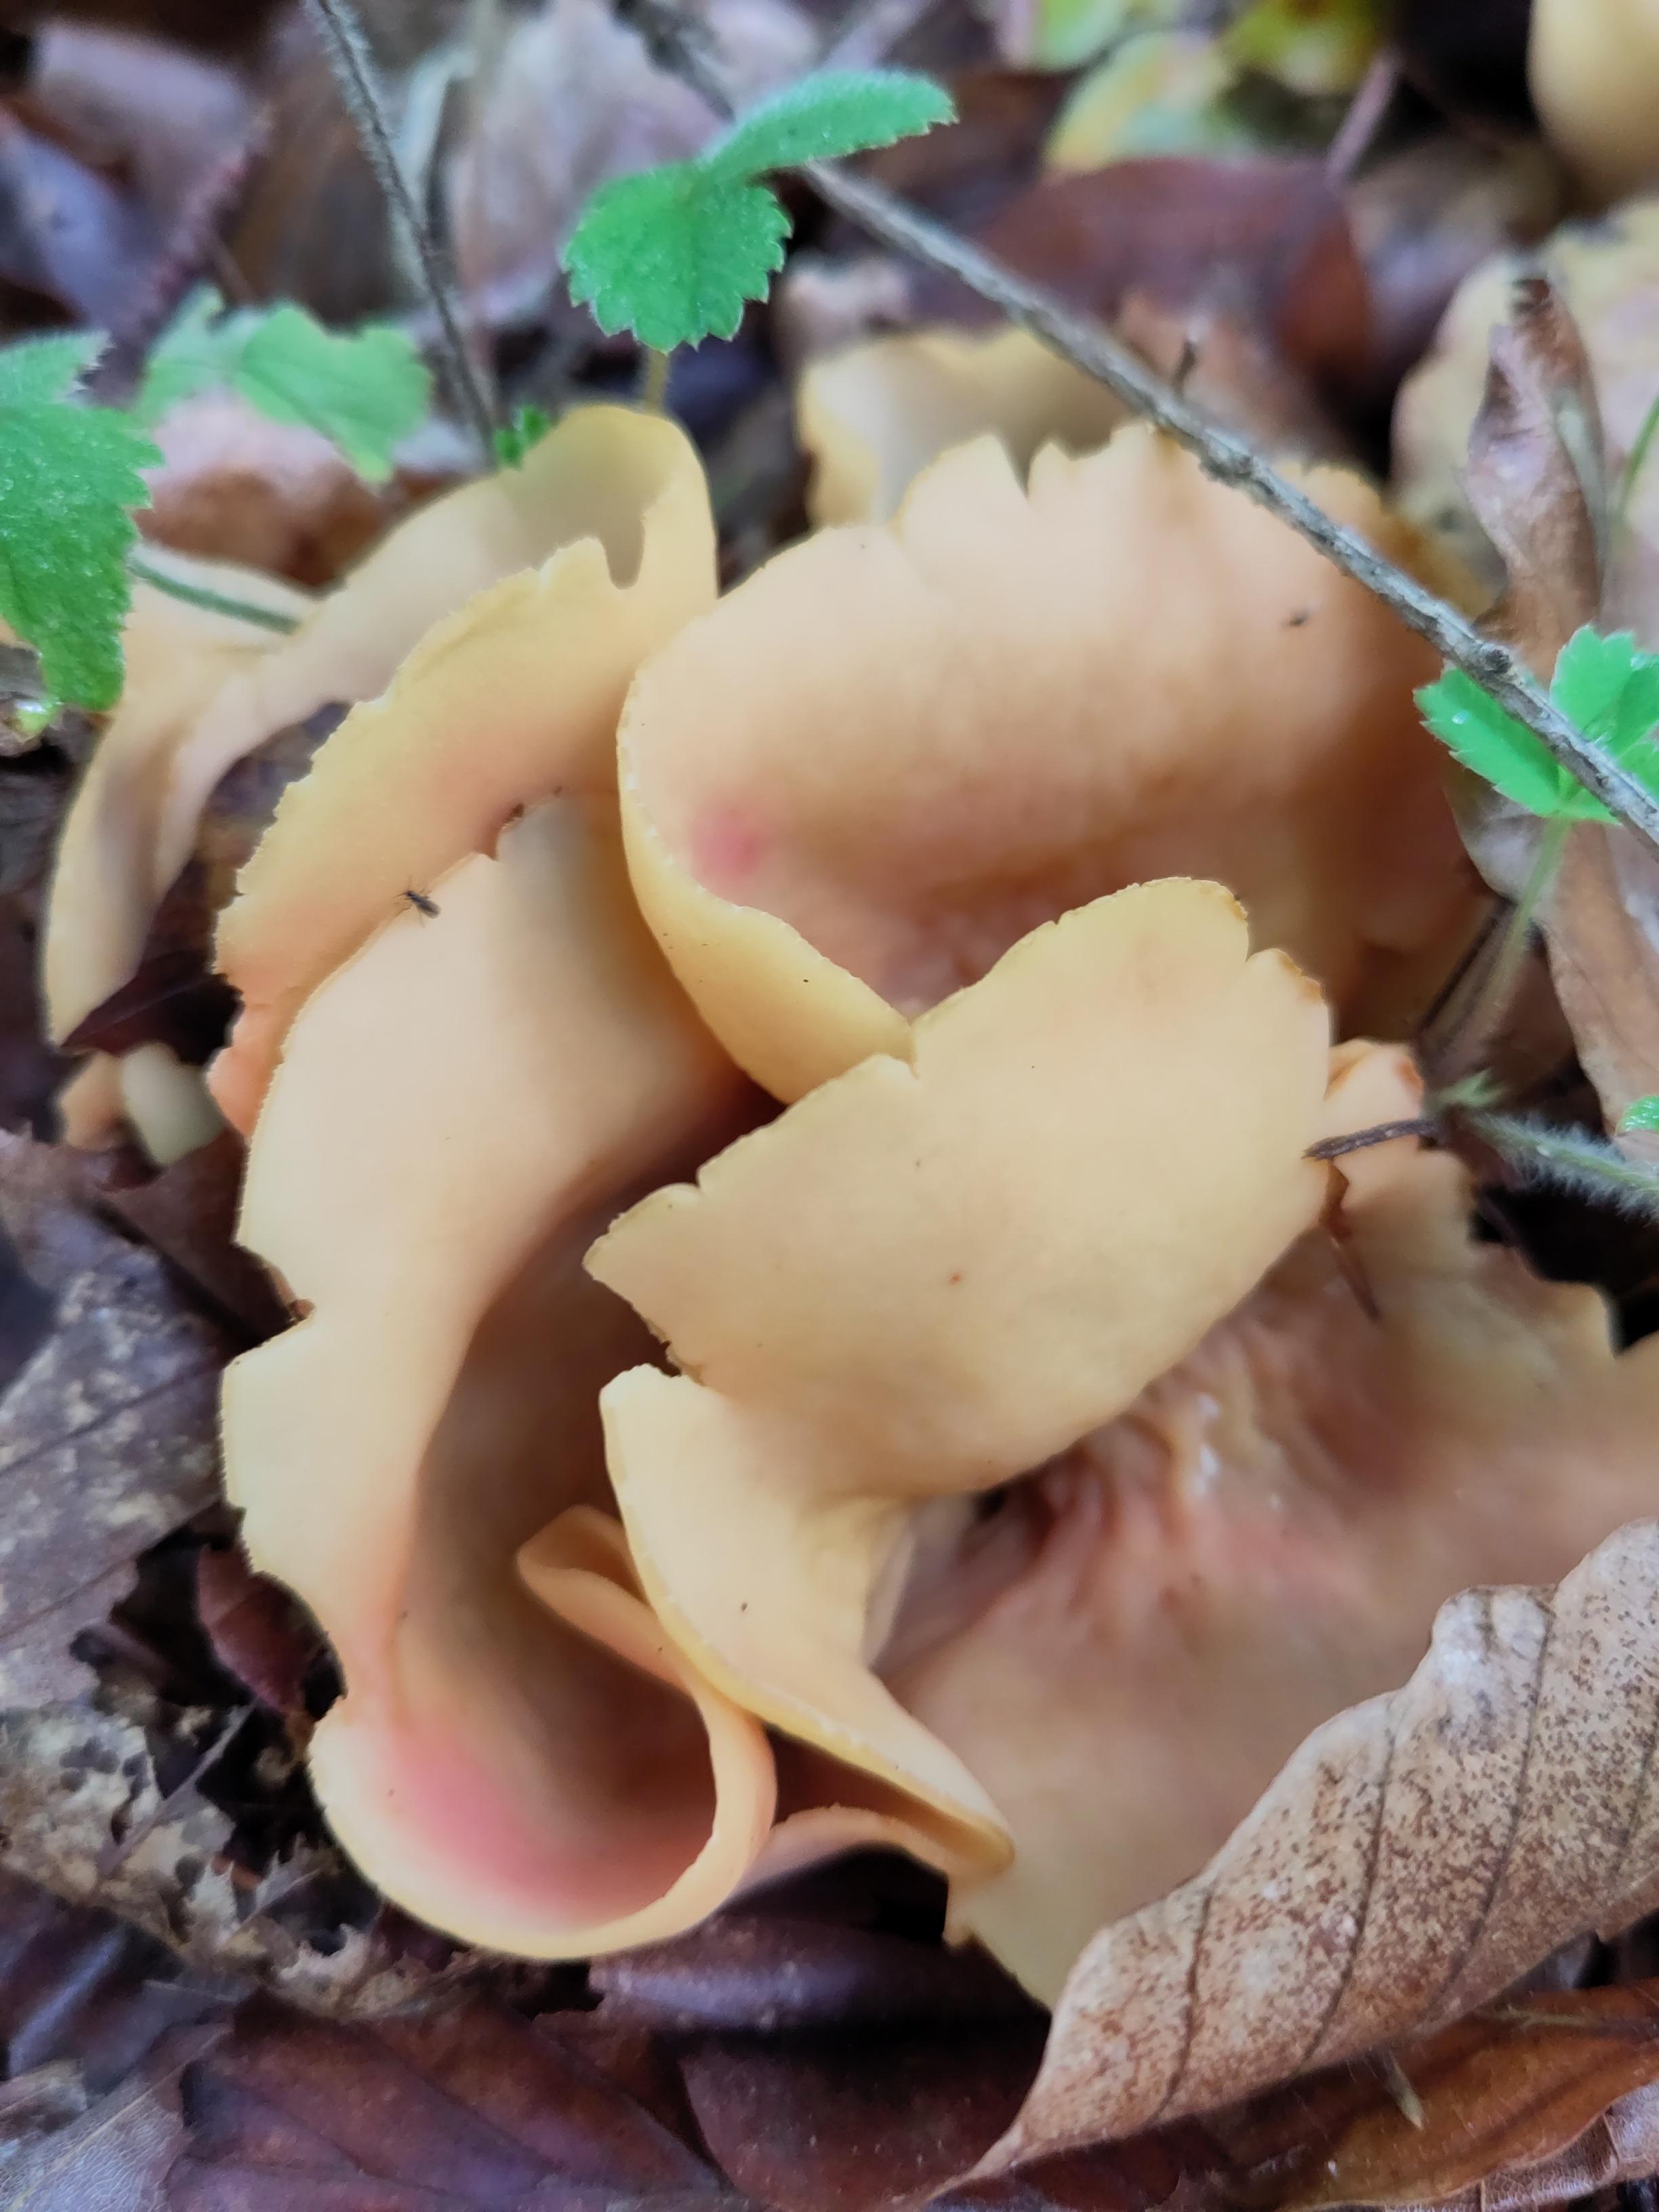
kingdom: Fungi
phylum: Ascomycota
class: Pezizomycetes
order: Pezizales
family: Otideaceae
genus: Otidea
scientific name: Otidea onotica
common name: æsel-ørebæger
